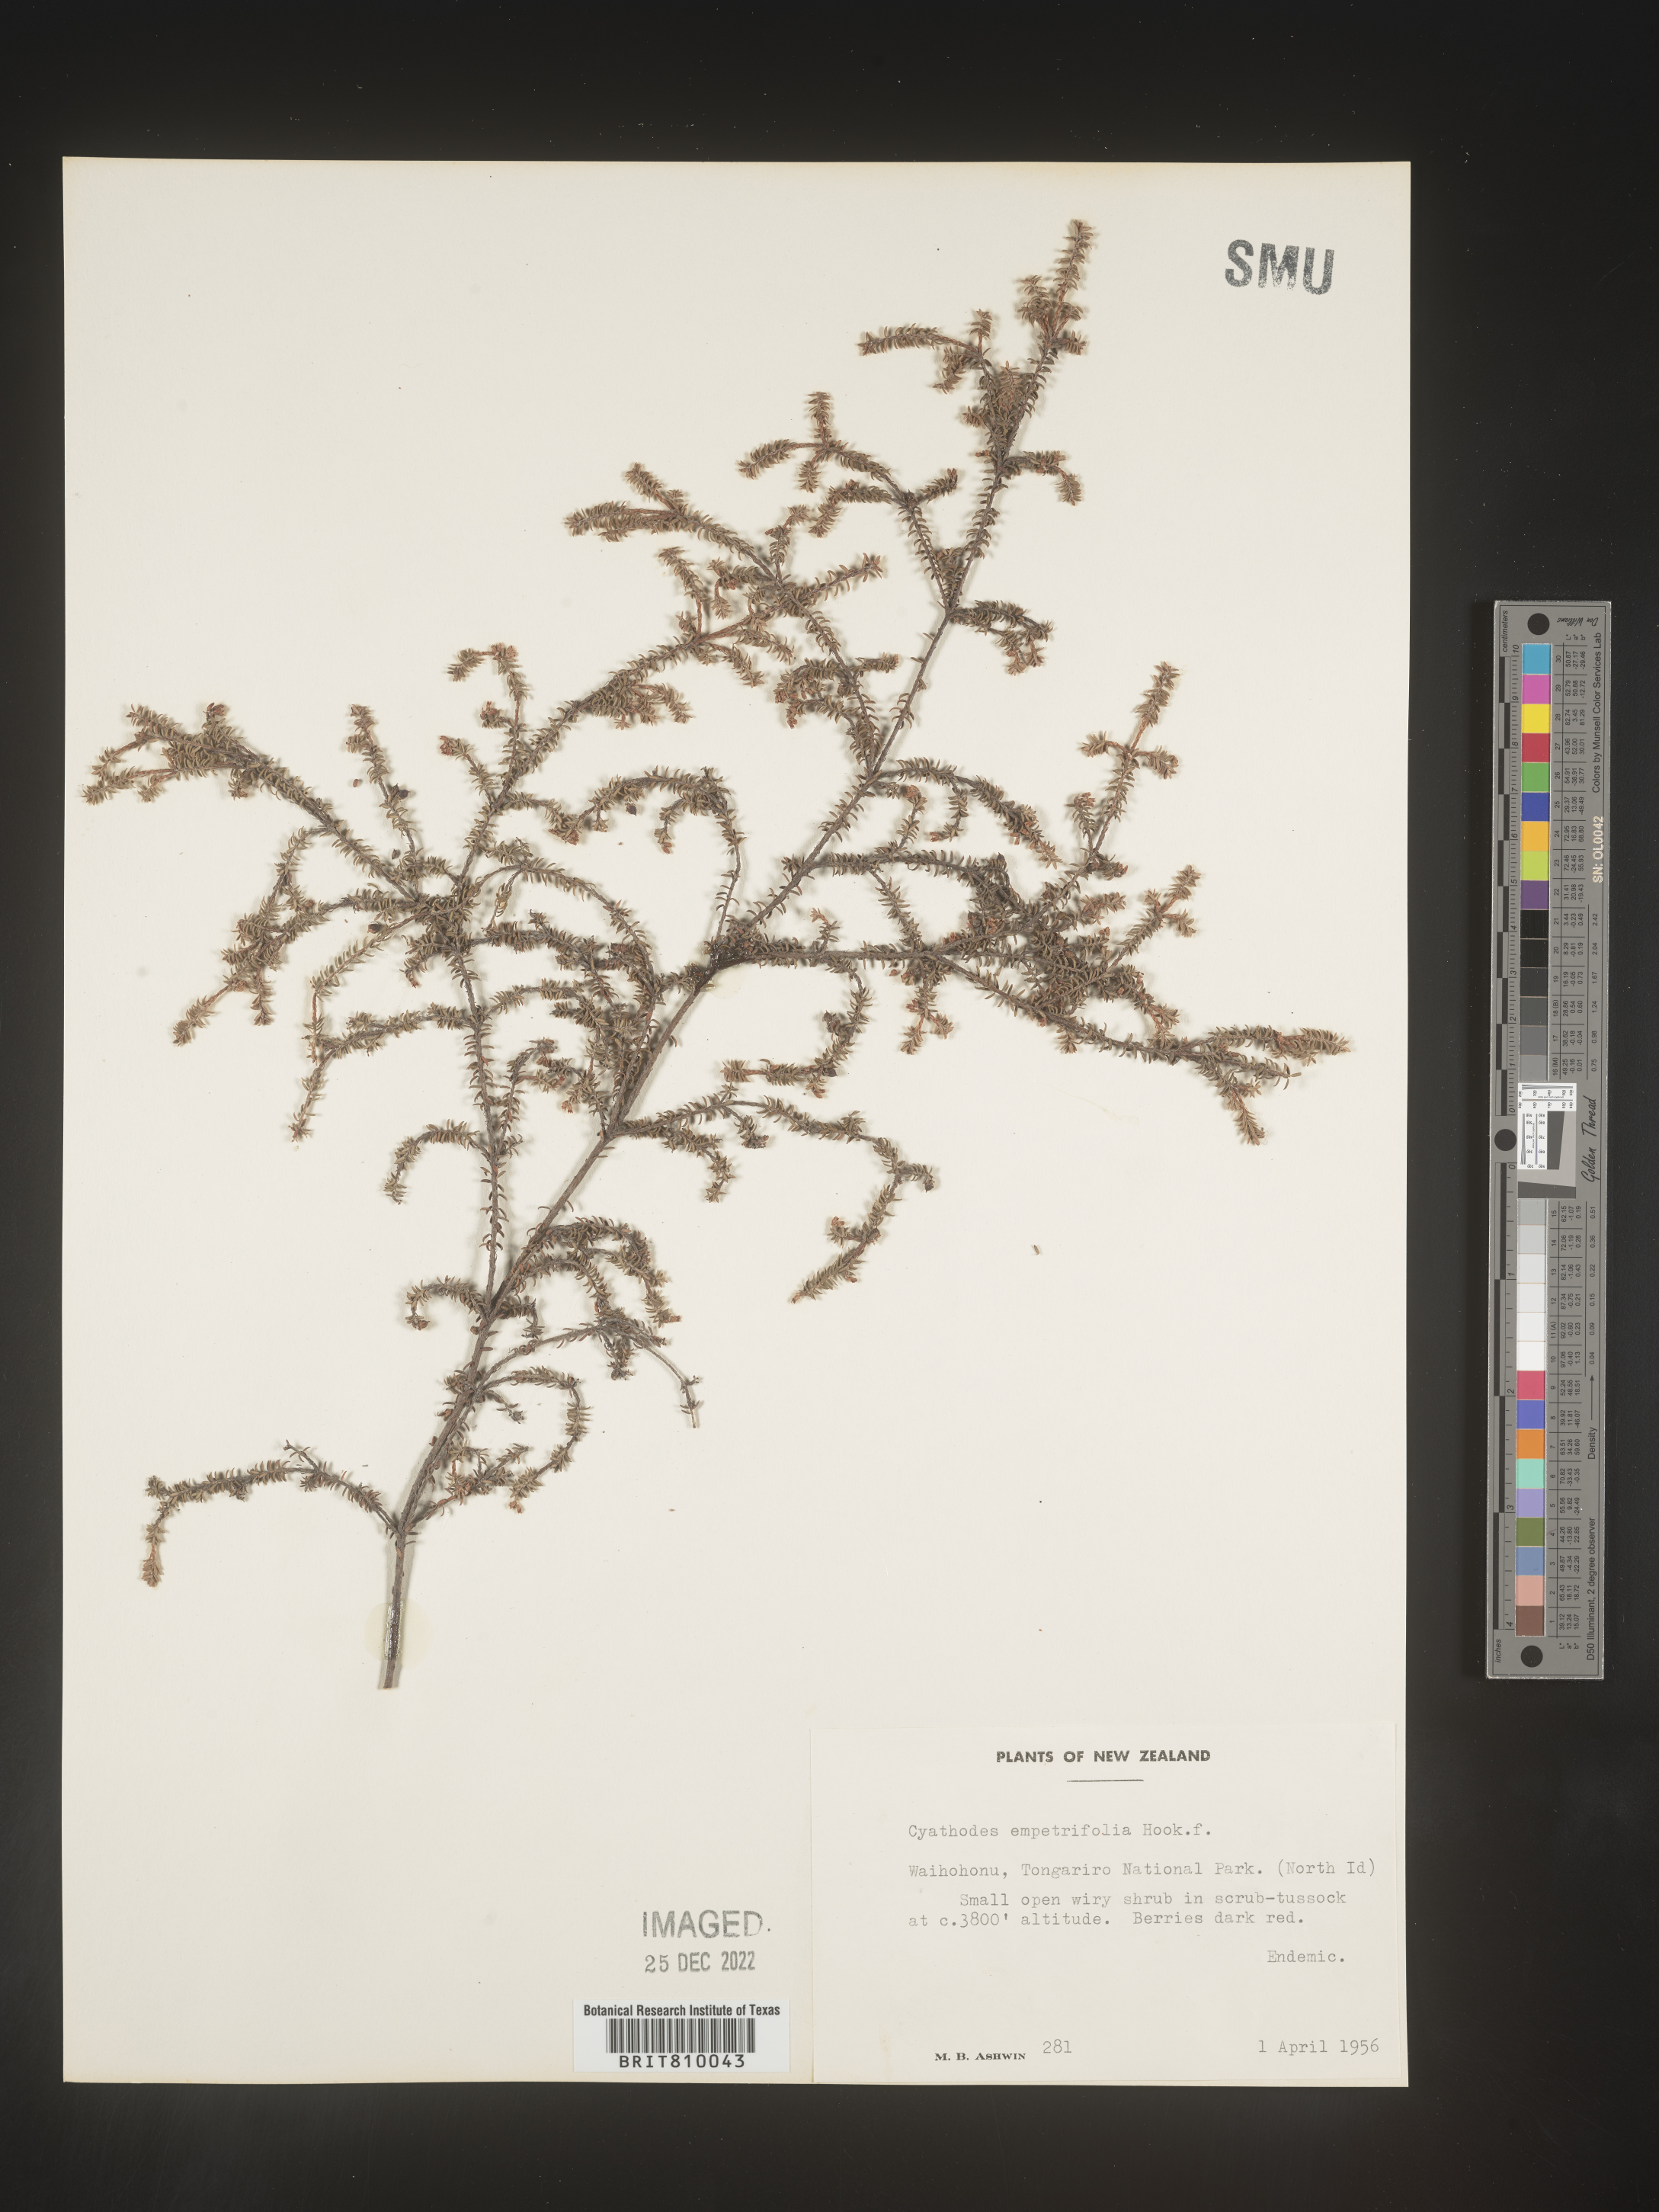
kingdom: Plantae
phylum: Tracheophyta
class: Magnoliopsida
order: Ericales
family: Ericaceae
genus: Cyathodes
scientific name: Cyathodes
